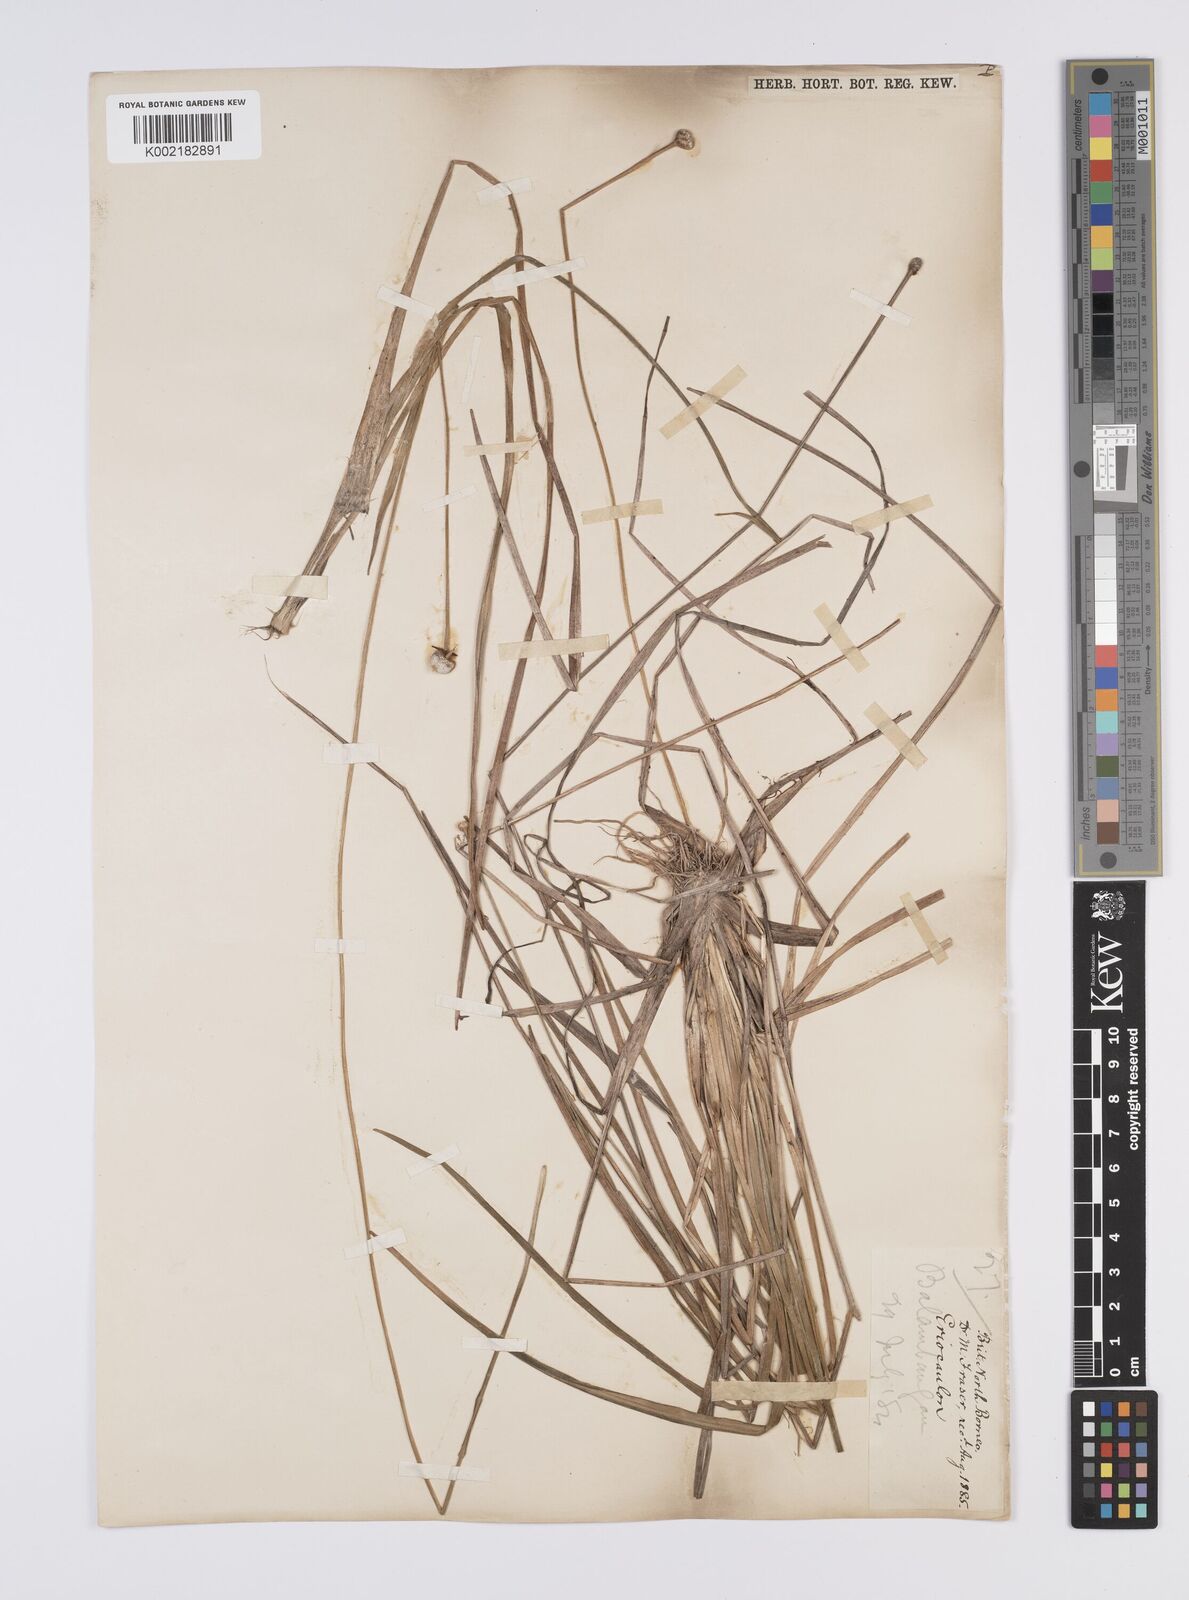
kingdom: Plantae
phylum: Tracheophyta
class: Liliopsida
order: Poales
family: Eriocaulaceae
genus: Eriocaulon
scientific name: Eriocaulon
